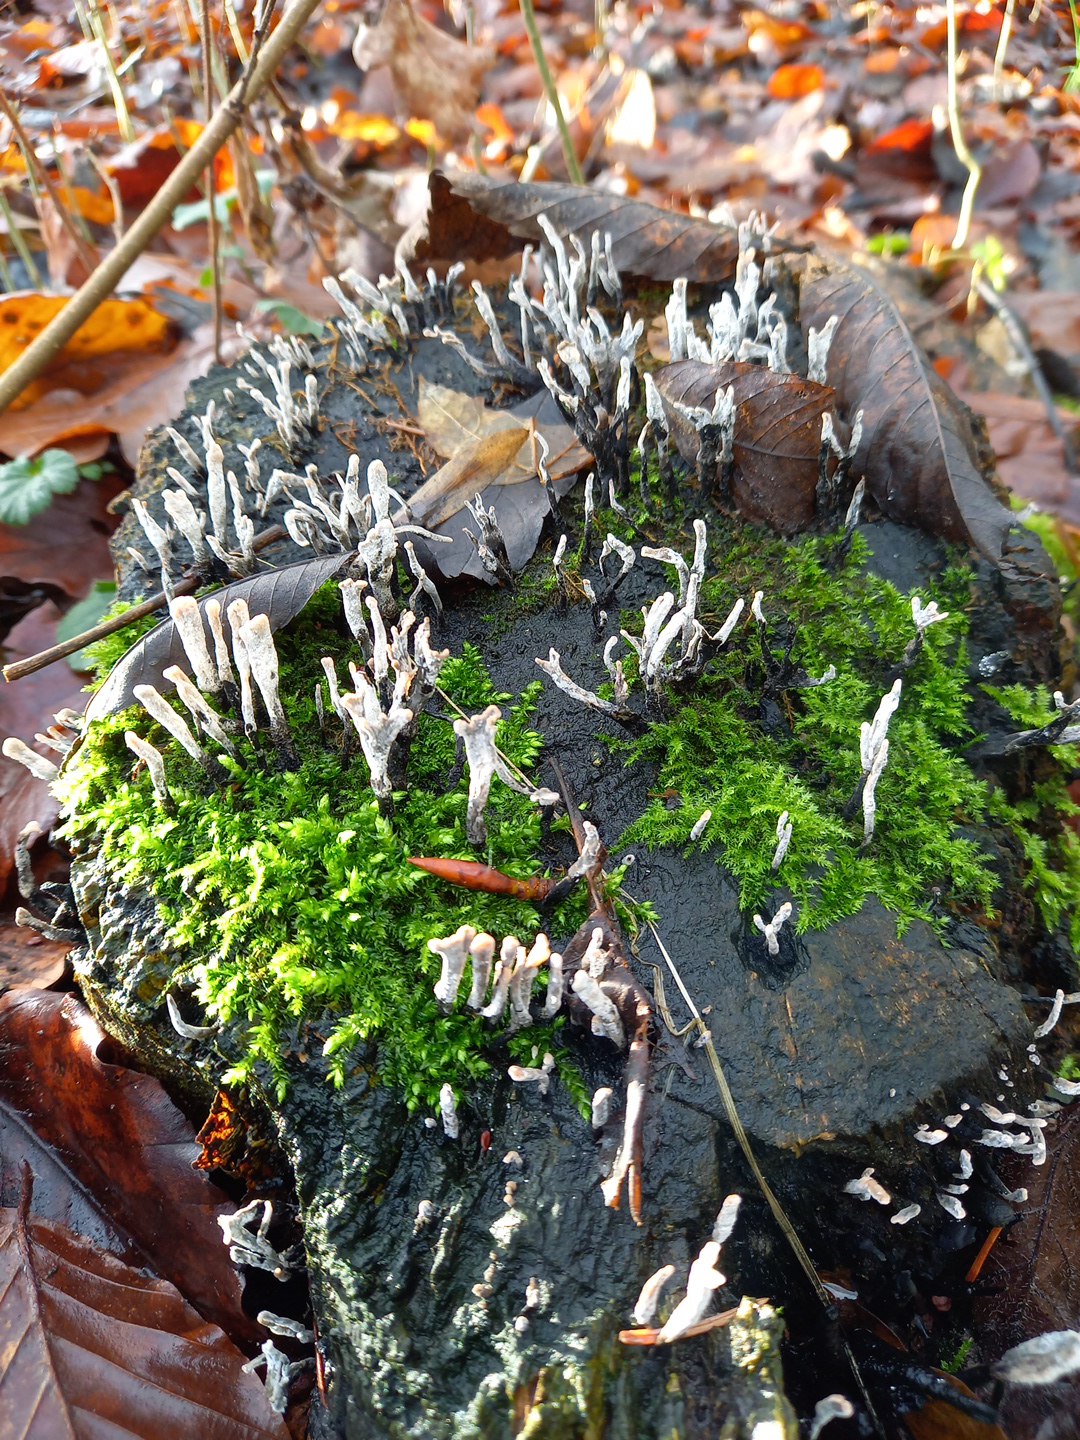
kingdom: Fungi
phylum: Ascomycota
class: Sordariomycetes
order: Xylariales
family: Xylariaceae
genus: Xylaria
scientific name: Xylaria hypoxylon
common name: grenet stødsvamp
